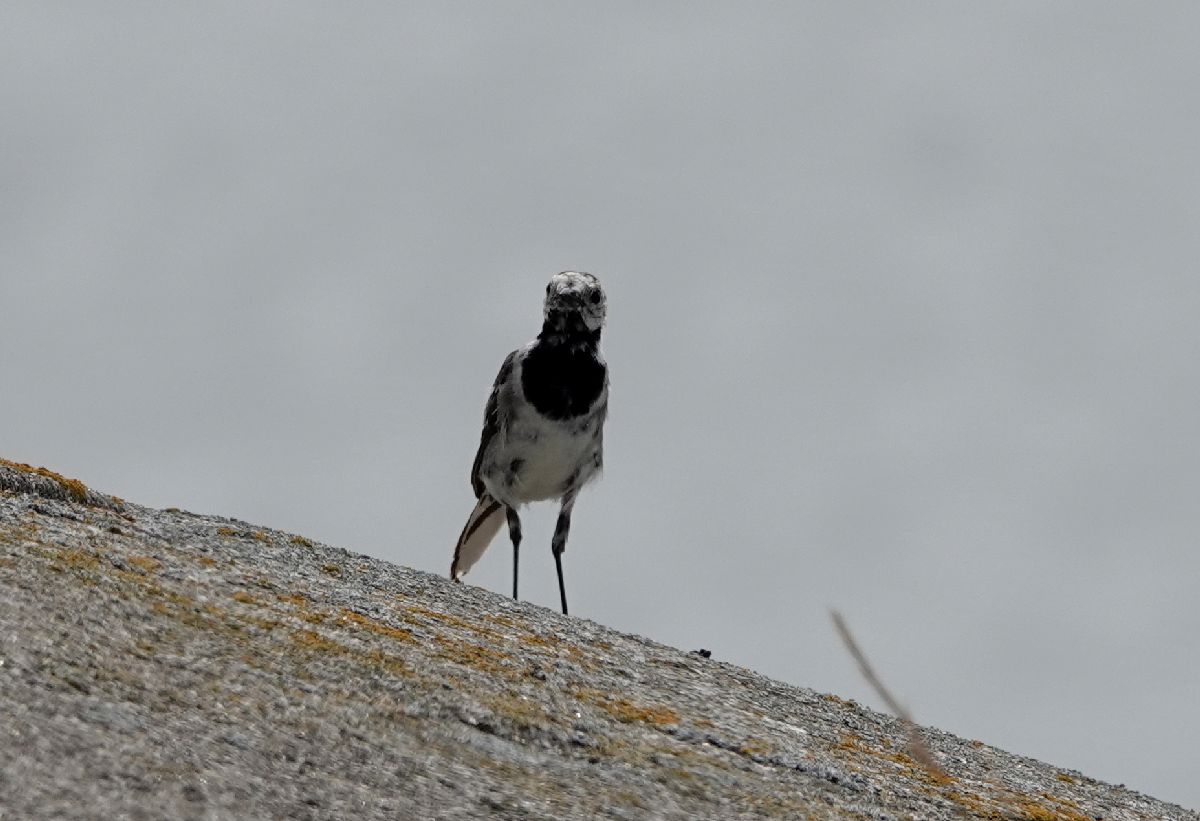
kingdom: Animalia
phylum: Chordata
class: Aves
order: Passeriformes
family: Motacillidae
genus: Motacilla
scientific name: Motacilla alba
